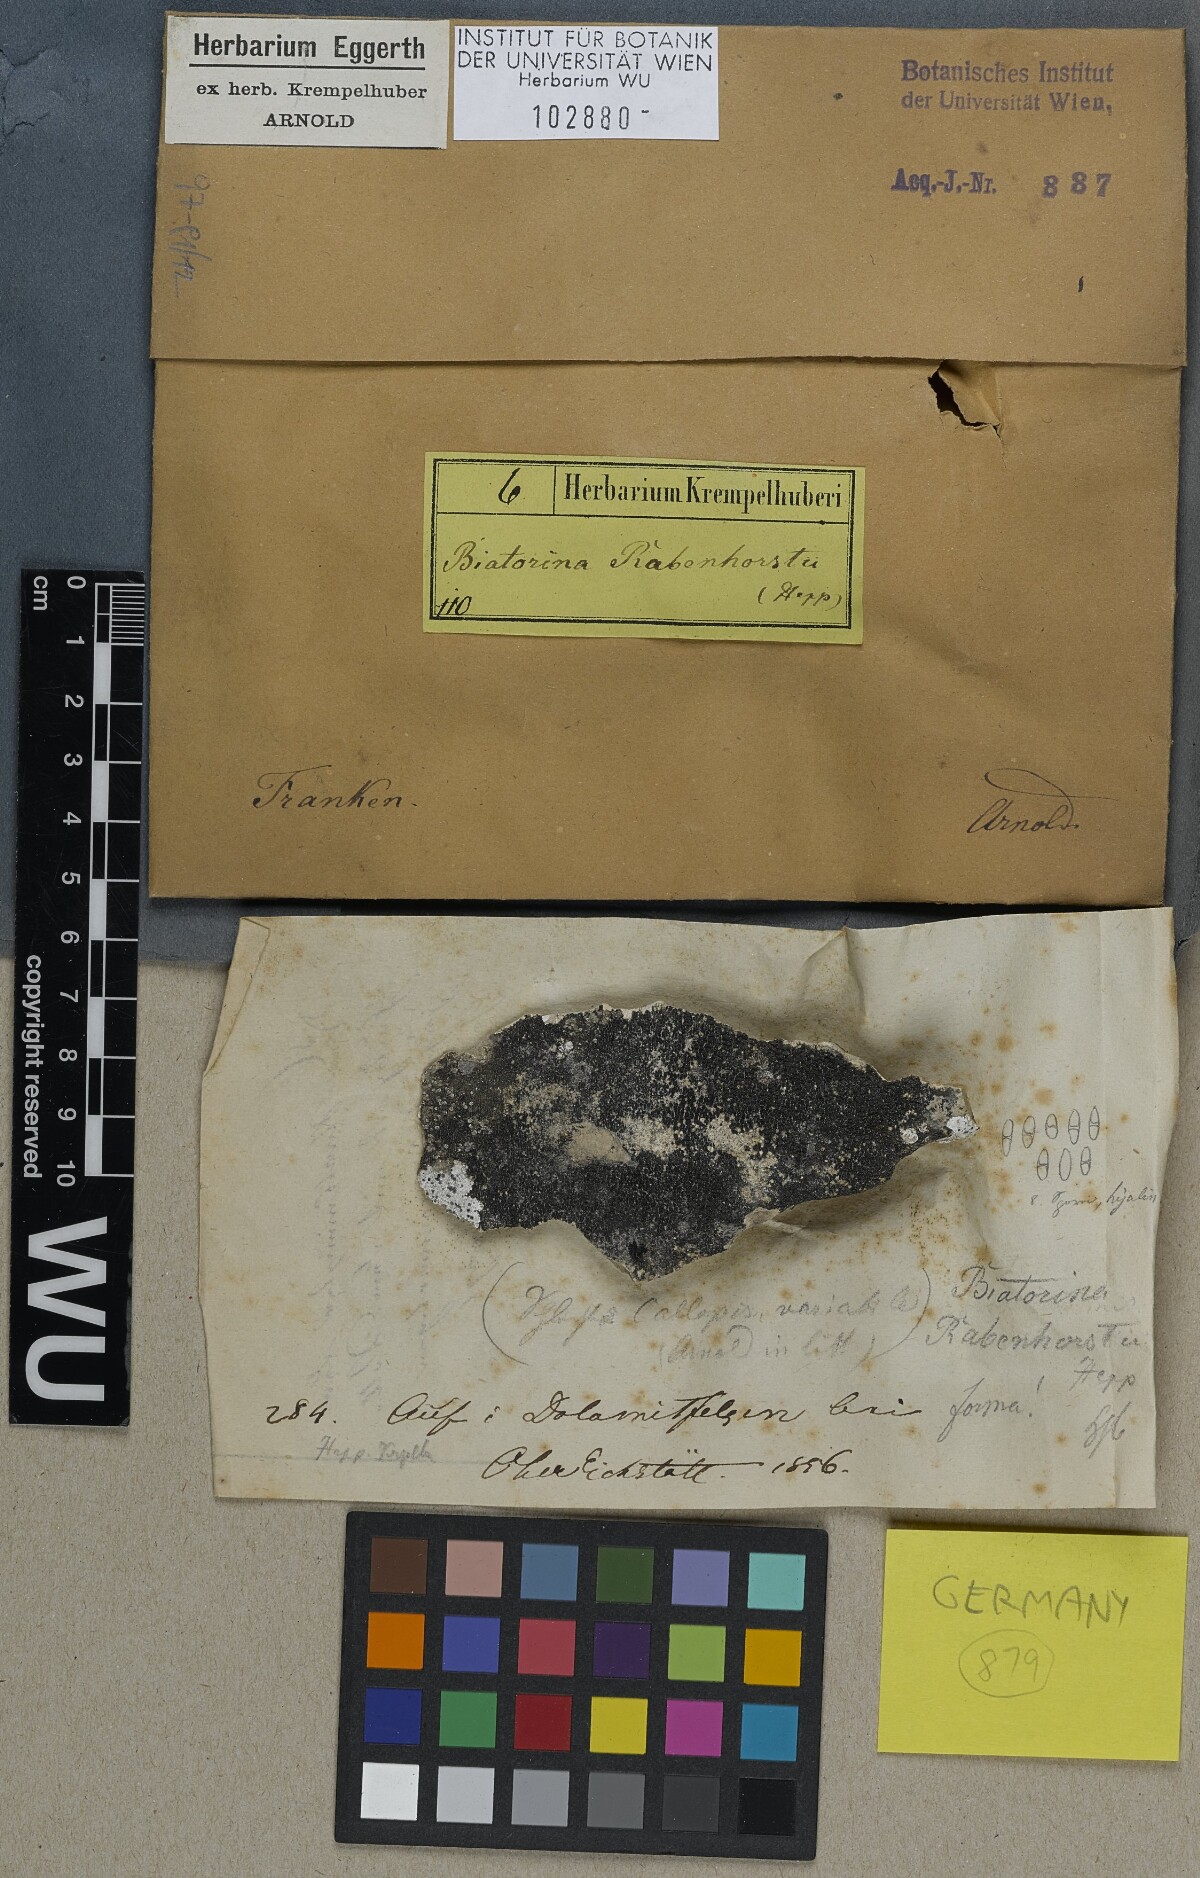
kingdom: Fungi
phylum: Ascomycota
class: Lecanoromycetes
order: Lecanorales
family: Ramalinaceae
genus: Lecania
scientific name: Lecania rabenhorstii
